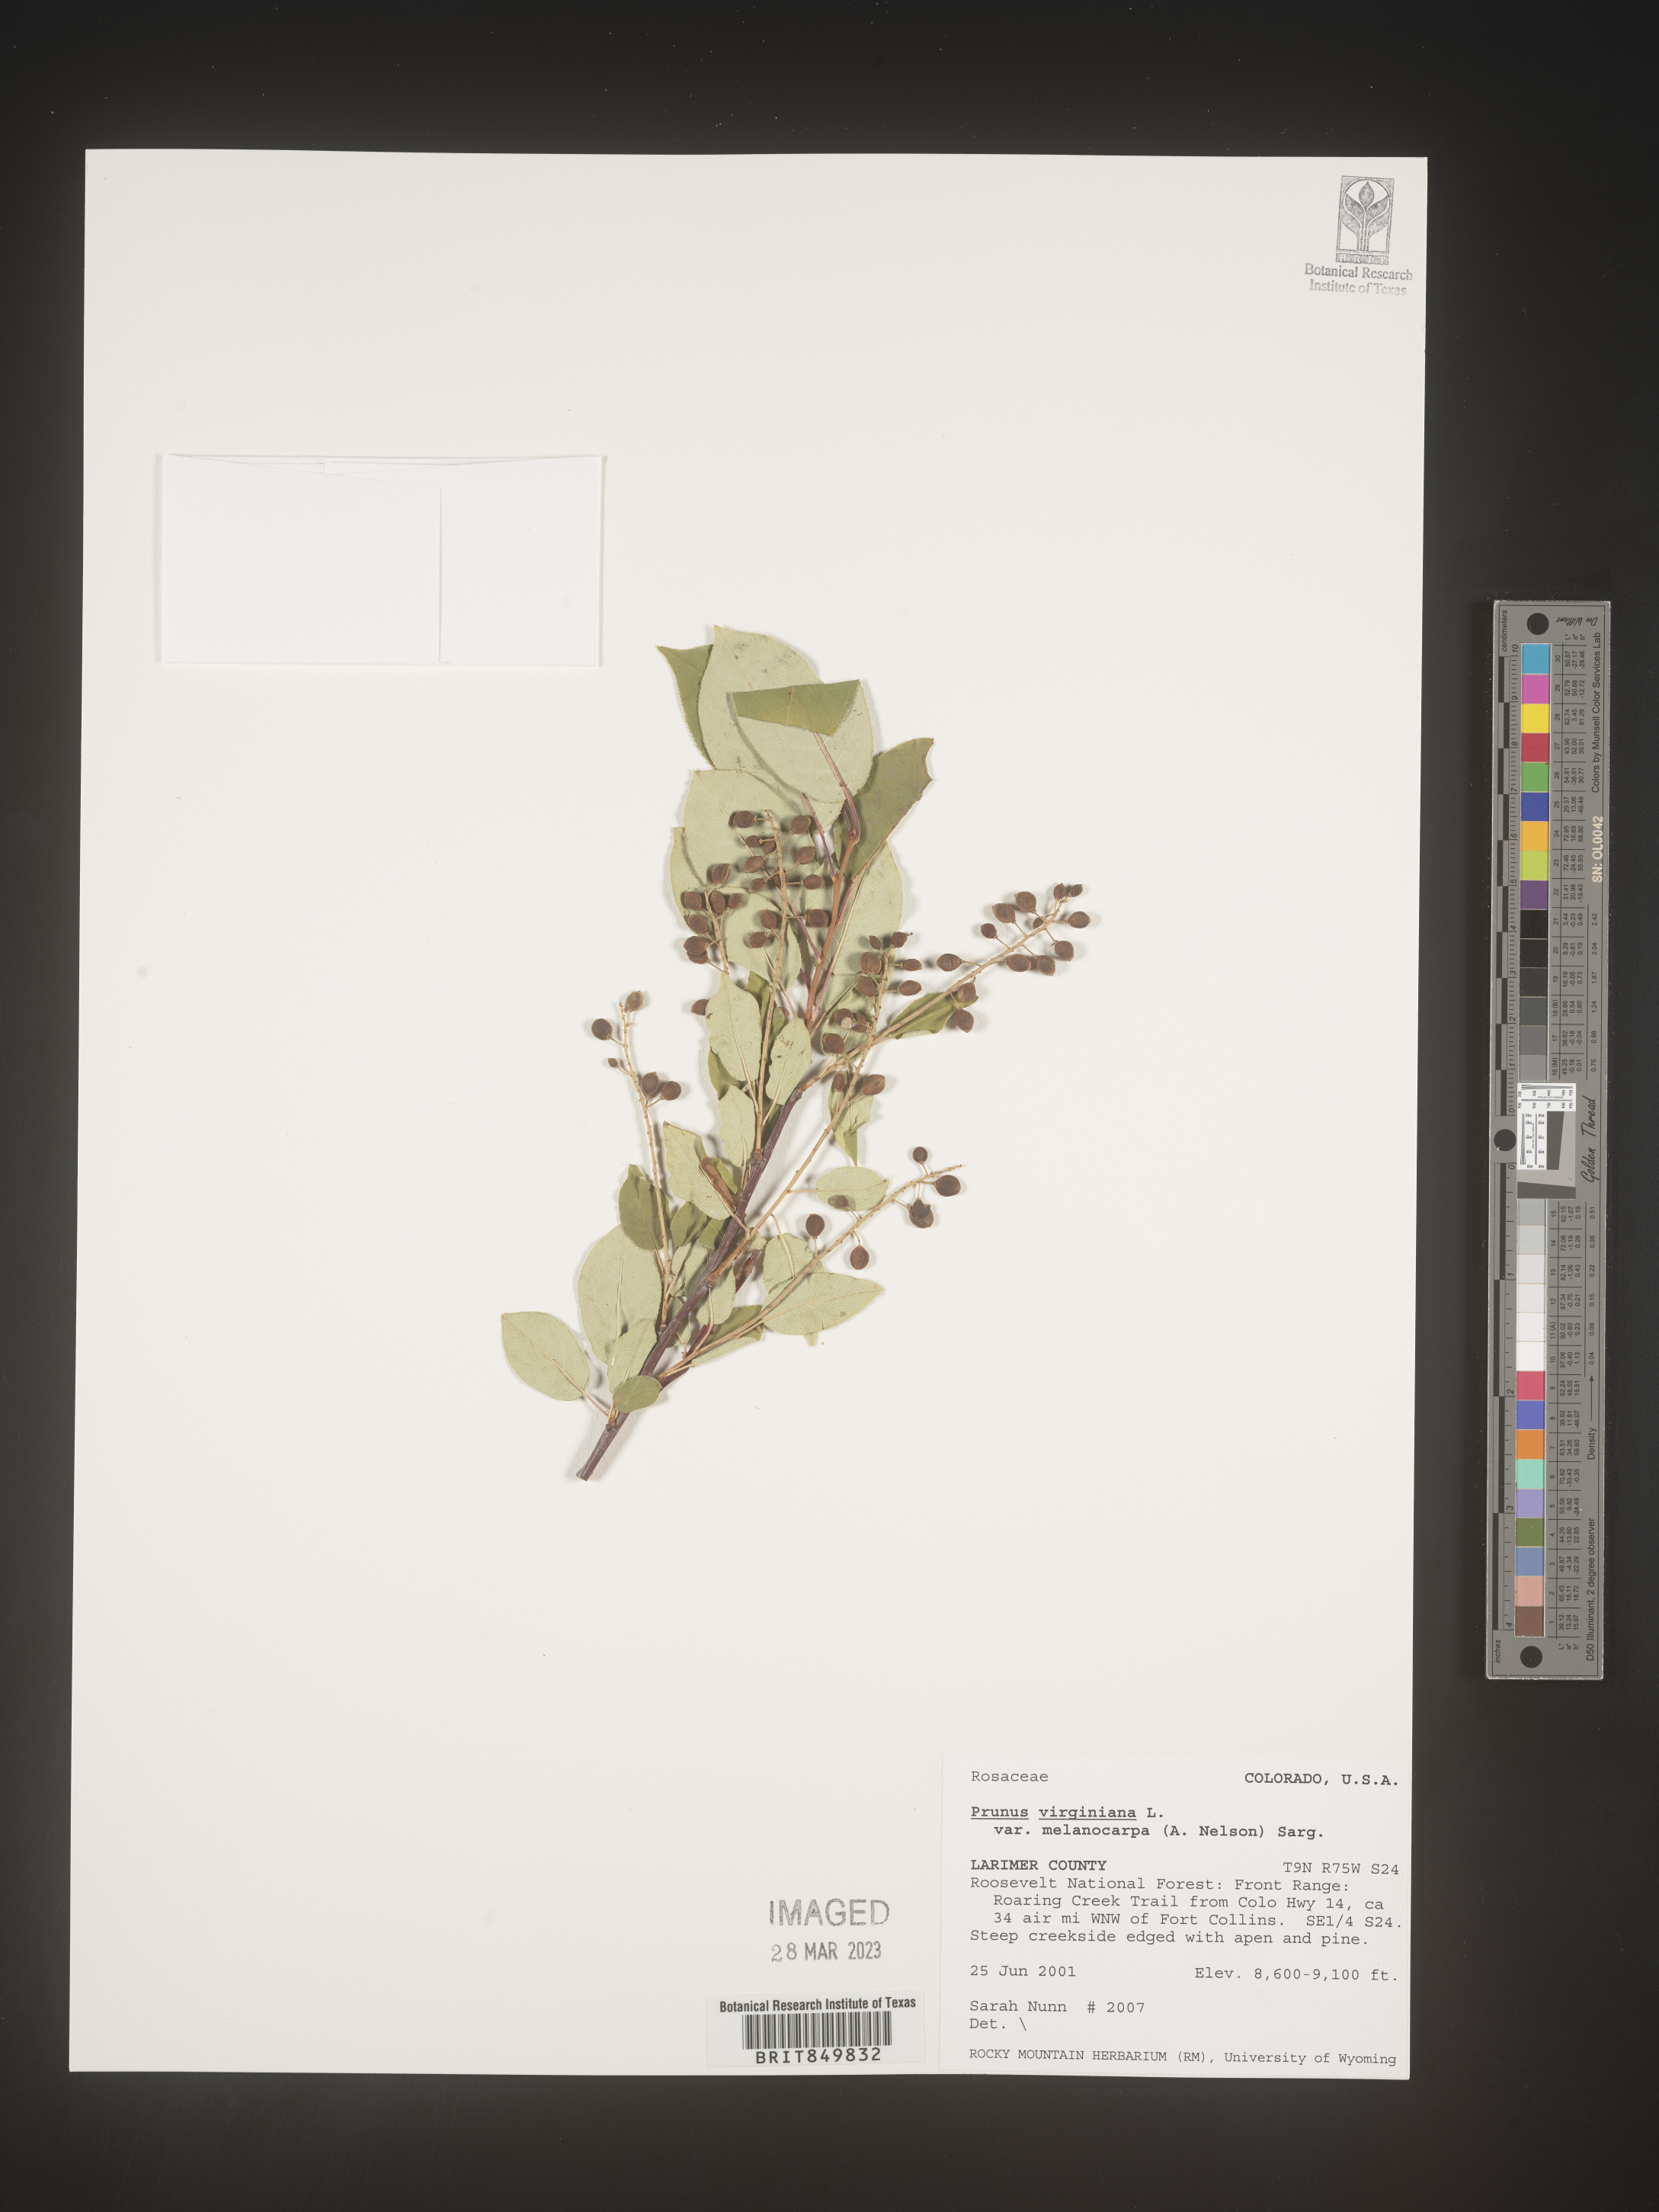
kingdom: Plantae
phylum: Tracheophyta
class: Magnoliopsida
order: Rosales
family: Rosaceae
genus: Prunus
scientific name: Prunus virginiana
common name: Chokecherry
